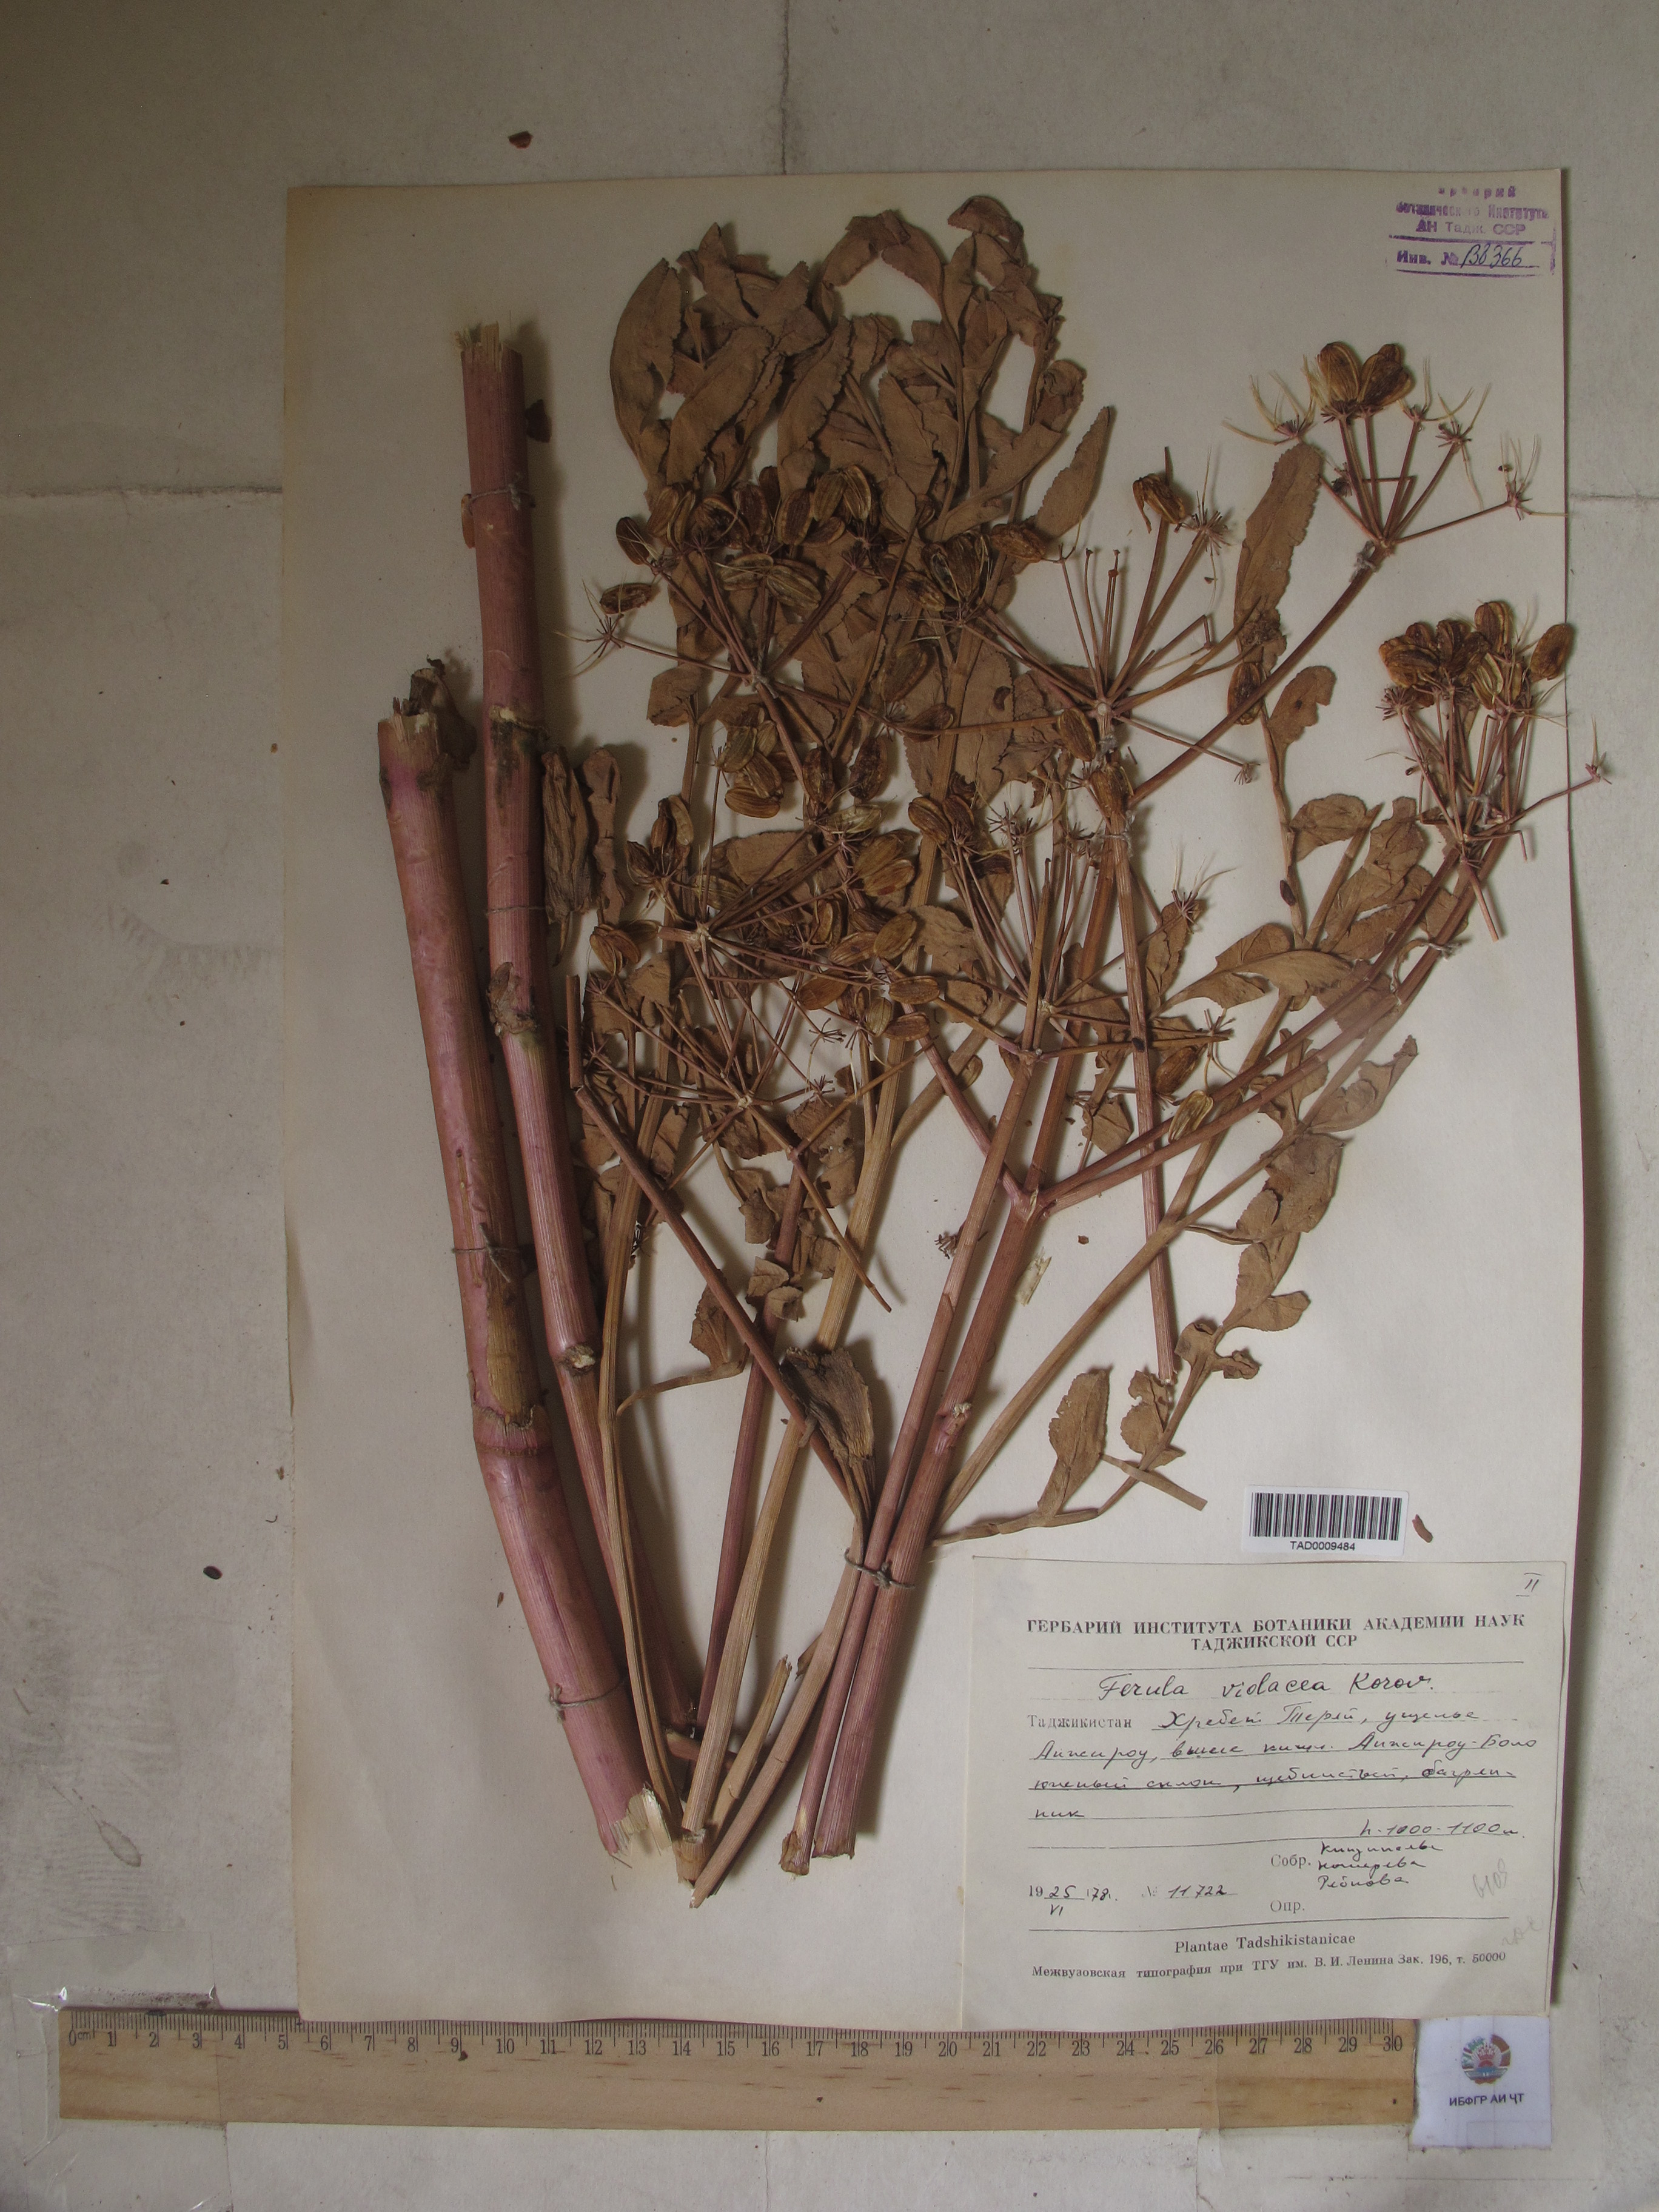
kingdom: Plantae
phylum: Tracheophyta
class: Magnoliopsida
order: Apiales
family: Apiaceae
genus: Ferula
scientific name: Ferula violacea
